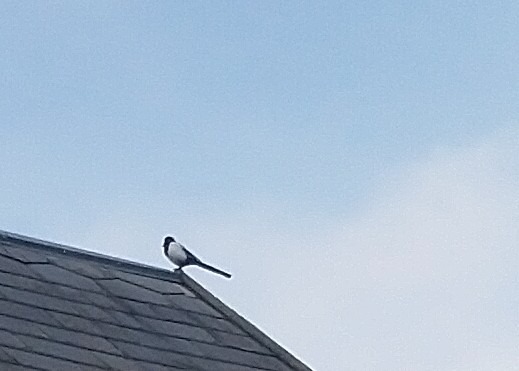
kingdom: Animalia
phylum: Chordata
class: Aves
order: Passeriformes
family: Corvidae
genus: Pica
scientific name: Pica pica
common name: Husskade
